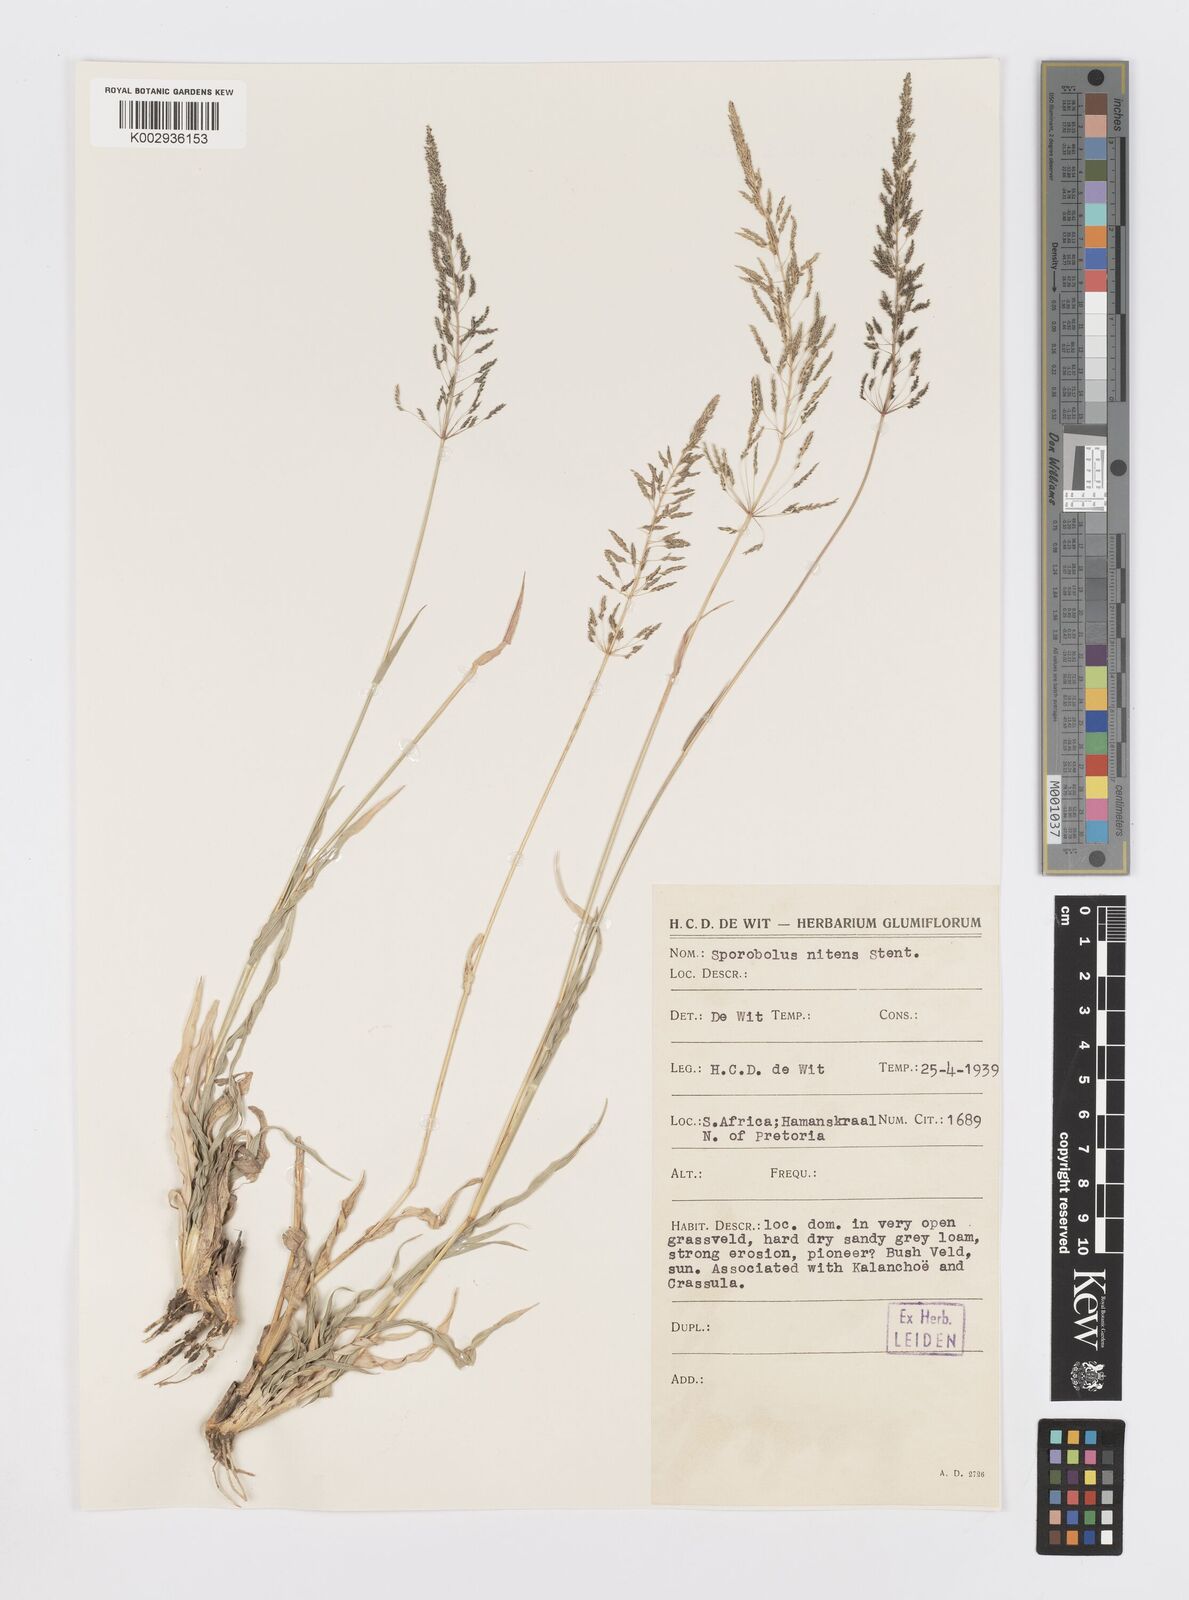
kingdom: Plantae
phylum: Tracheophyta
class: Liliopsida
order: Poales
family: Poaceae
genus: Sporobolus
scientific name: Sporobolus nitens
